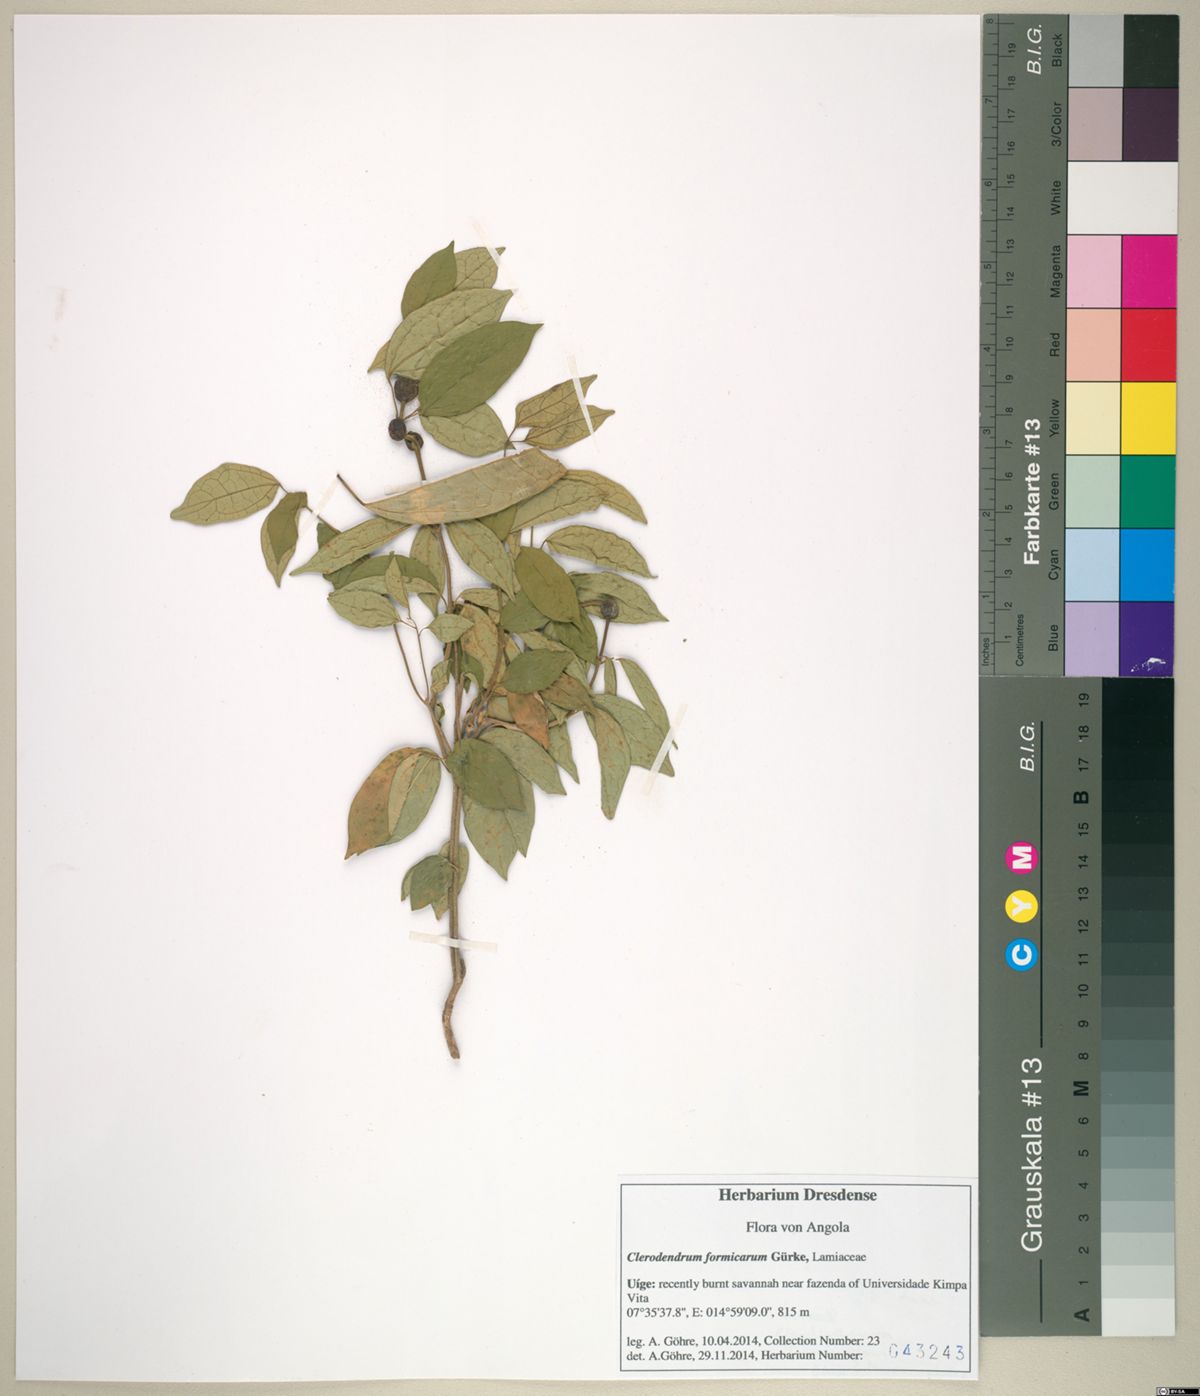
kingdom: Plantae
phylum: Tracheophyta
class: Magnoliopsida
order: Lamiales
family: Lamiaceae
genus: Clerodendrum
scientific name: Clerodendrum formicarum
